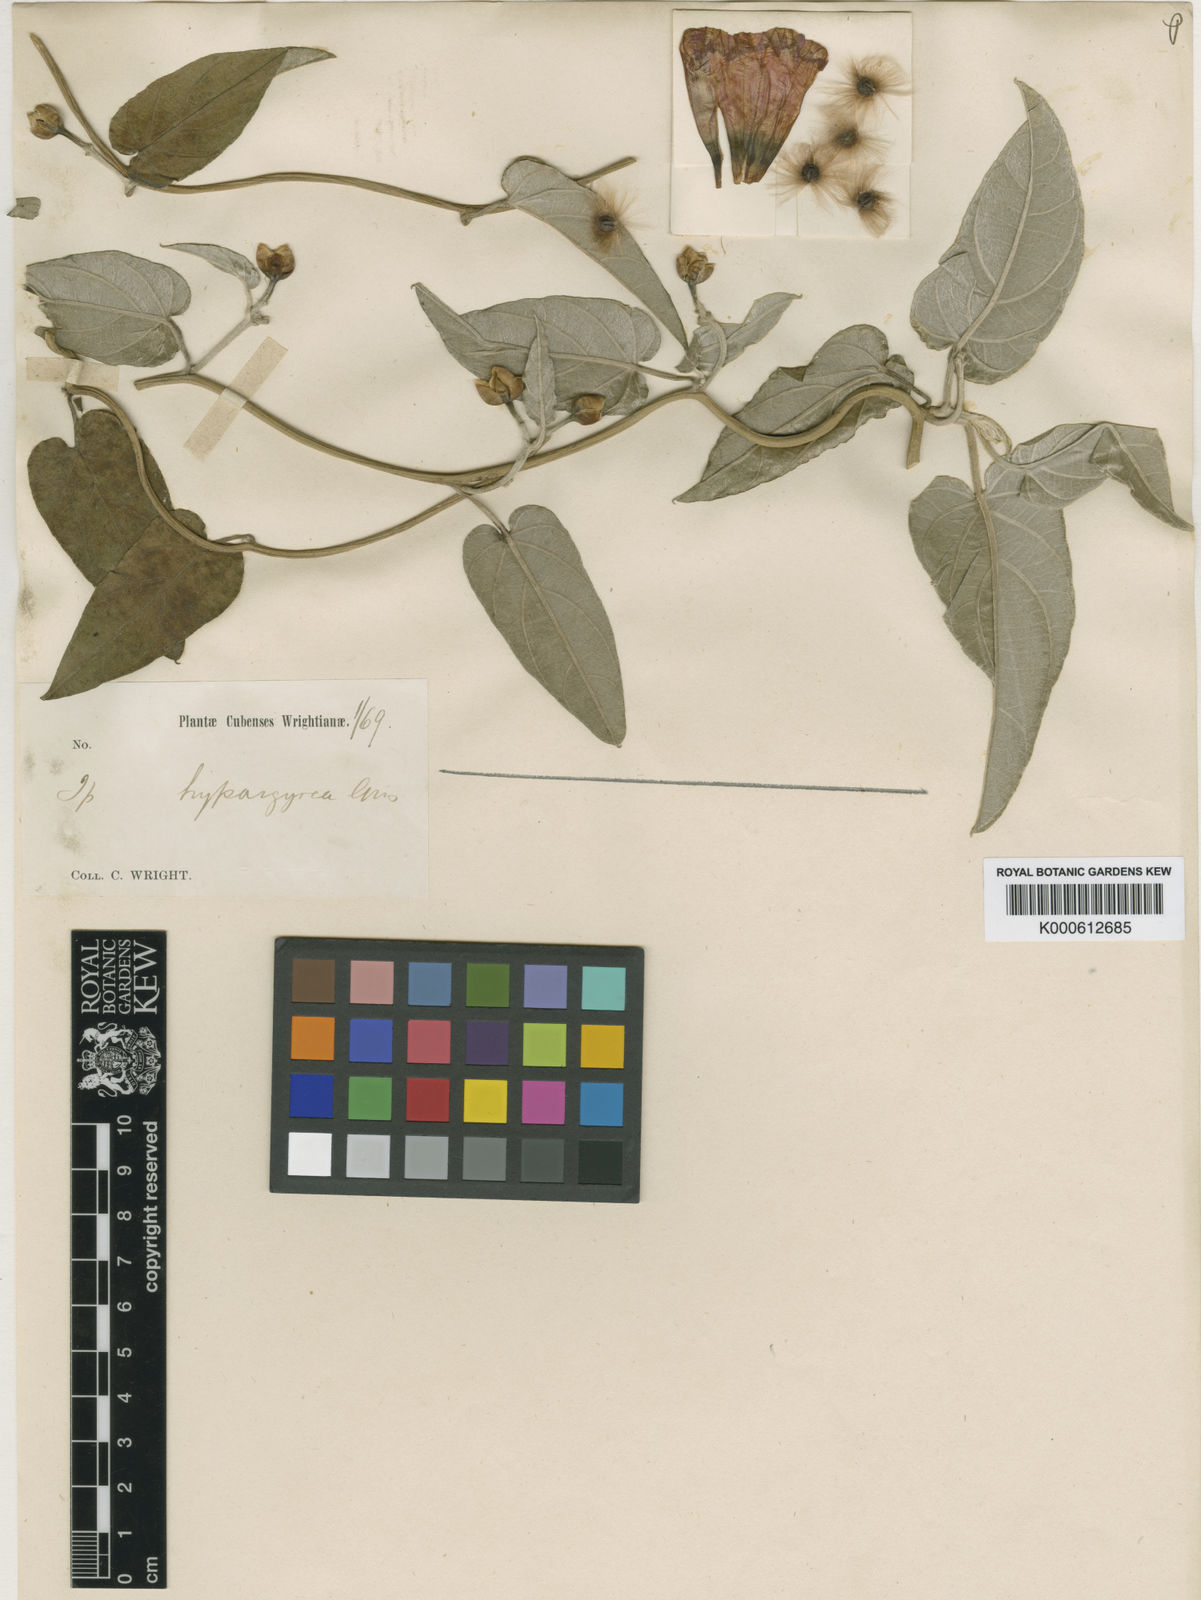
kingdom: Plantae
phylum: Tracheophyta
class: Magnoliopsida
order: Solanales
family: Convolvulaceae
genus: Ipomoea
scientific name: Ipomoea
